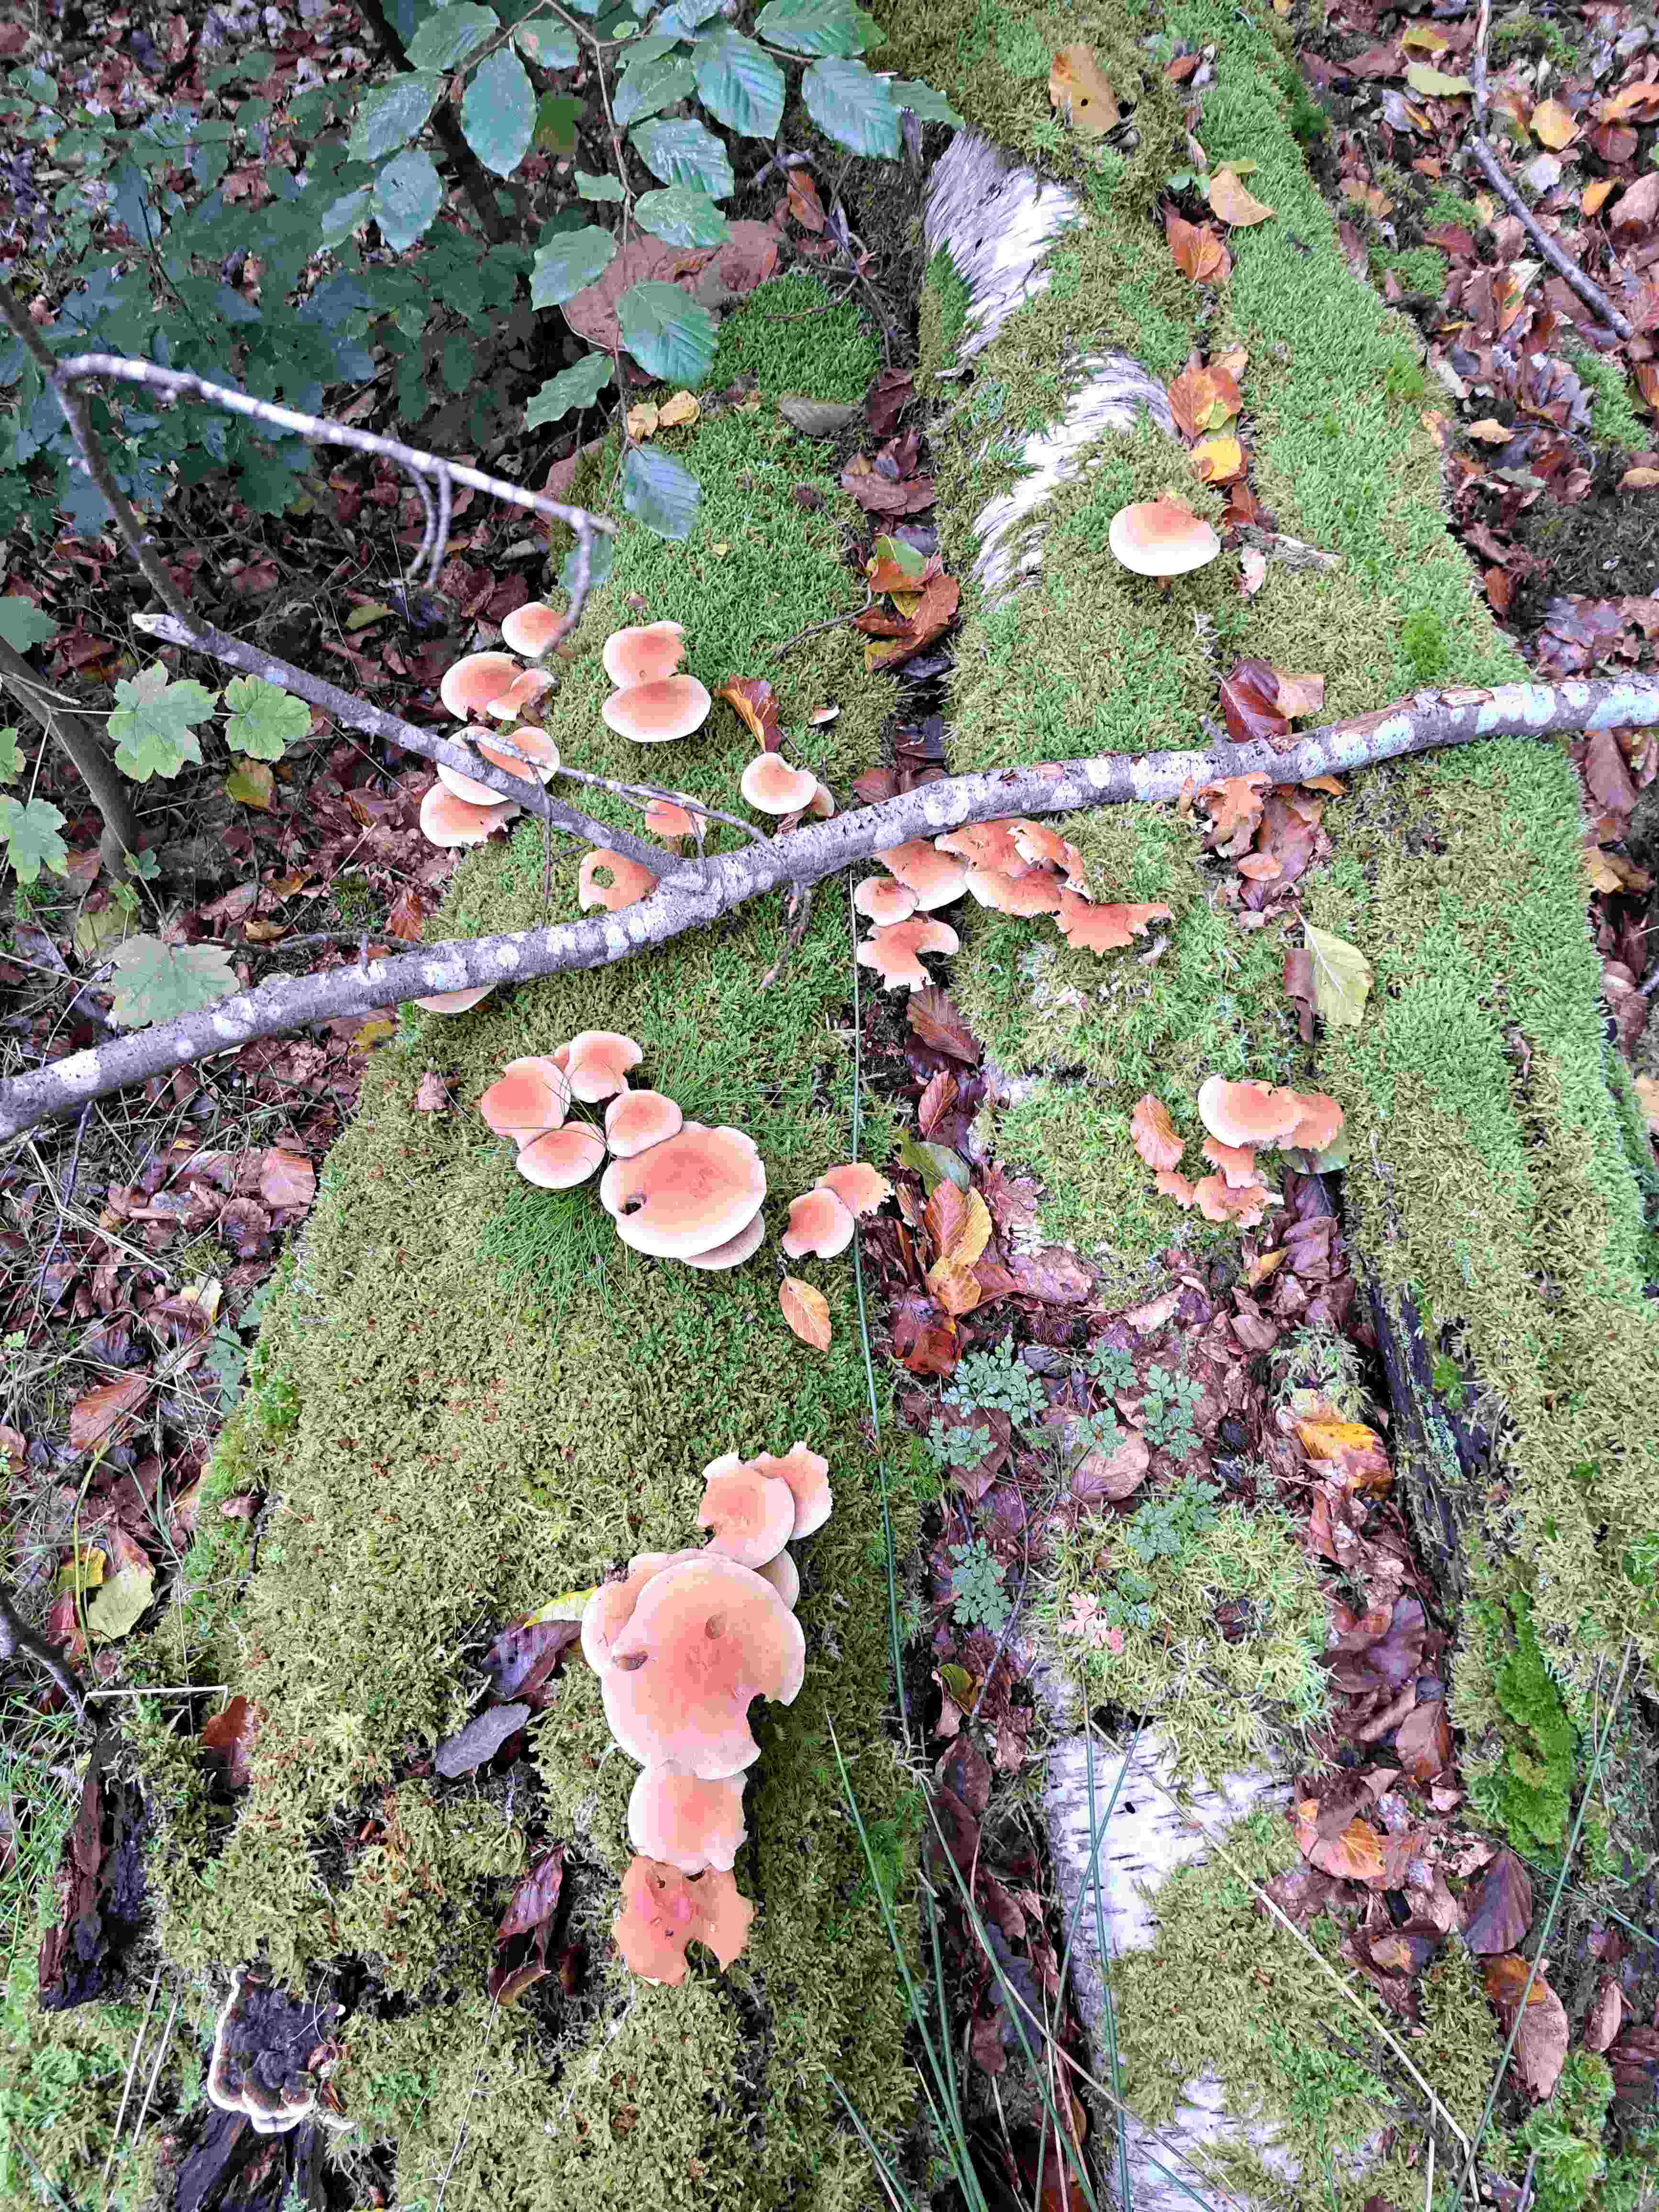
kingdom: Fungi
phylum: Basidiomycota
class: Agaricomycetes
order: Agaricales
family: Strophariaceae
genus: Hypholoma
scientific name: Hypholoma lateritium
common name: teglrød svovlhat
